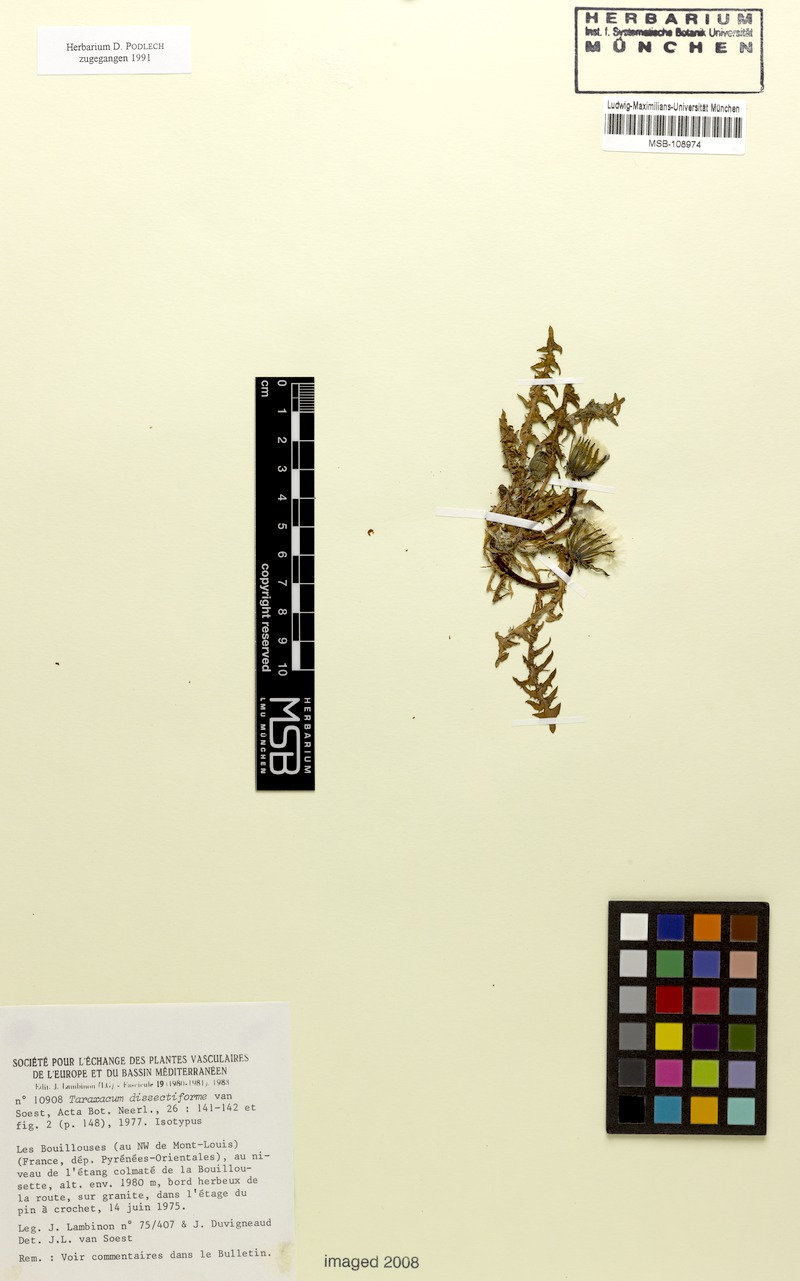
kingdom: Plantae
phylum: Tracheophyta
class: Magnoliopsida
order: Asterales
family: Asteraceae
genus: Taraxacum
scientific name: Taraxacum dissectiforme
